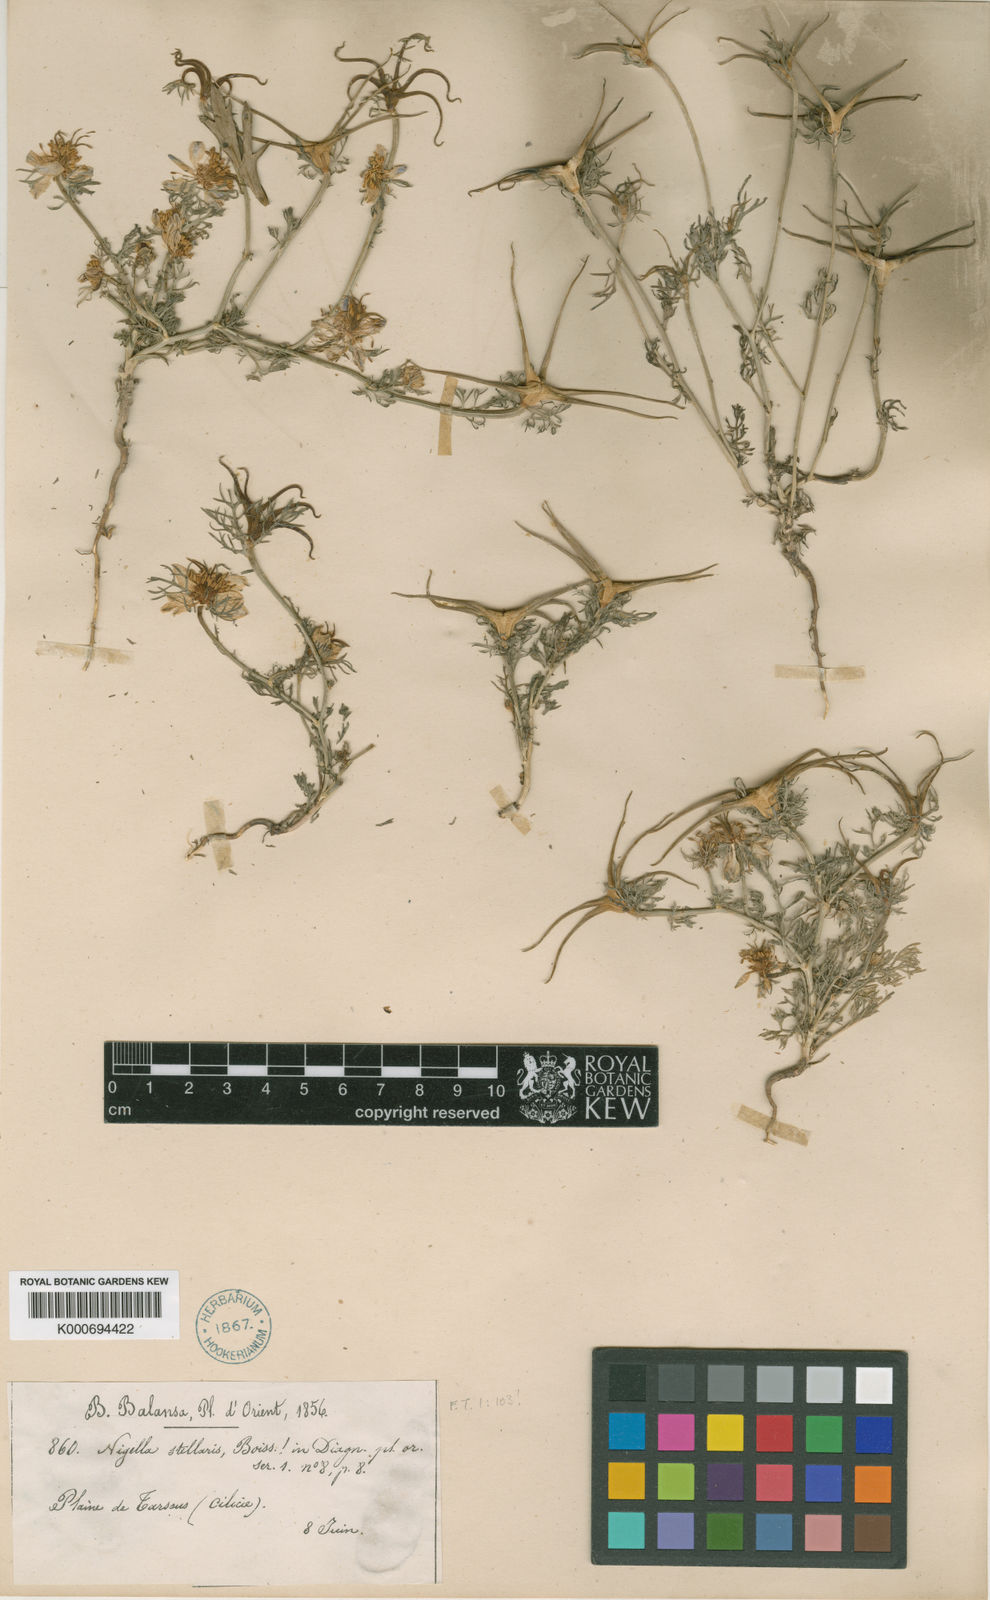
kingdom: Plantae
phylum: Tracheophyta
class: Magnoliopsida
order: Ranunculales
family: Ranunculaceae
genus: Nigella
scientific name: Nigella stellaris
